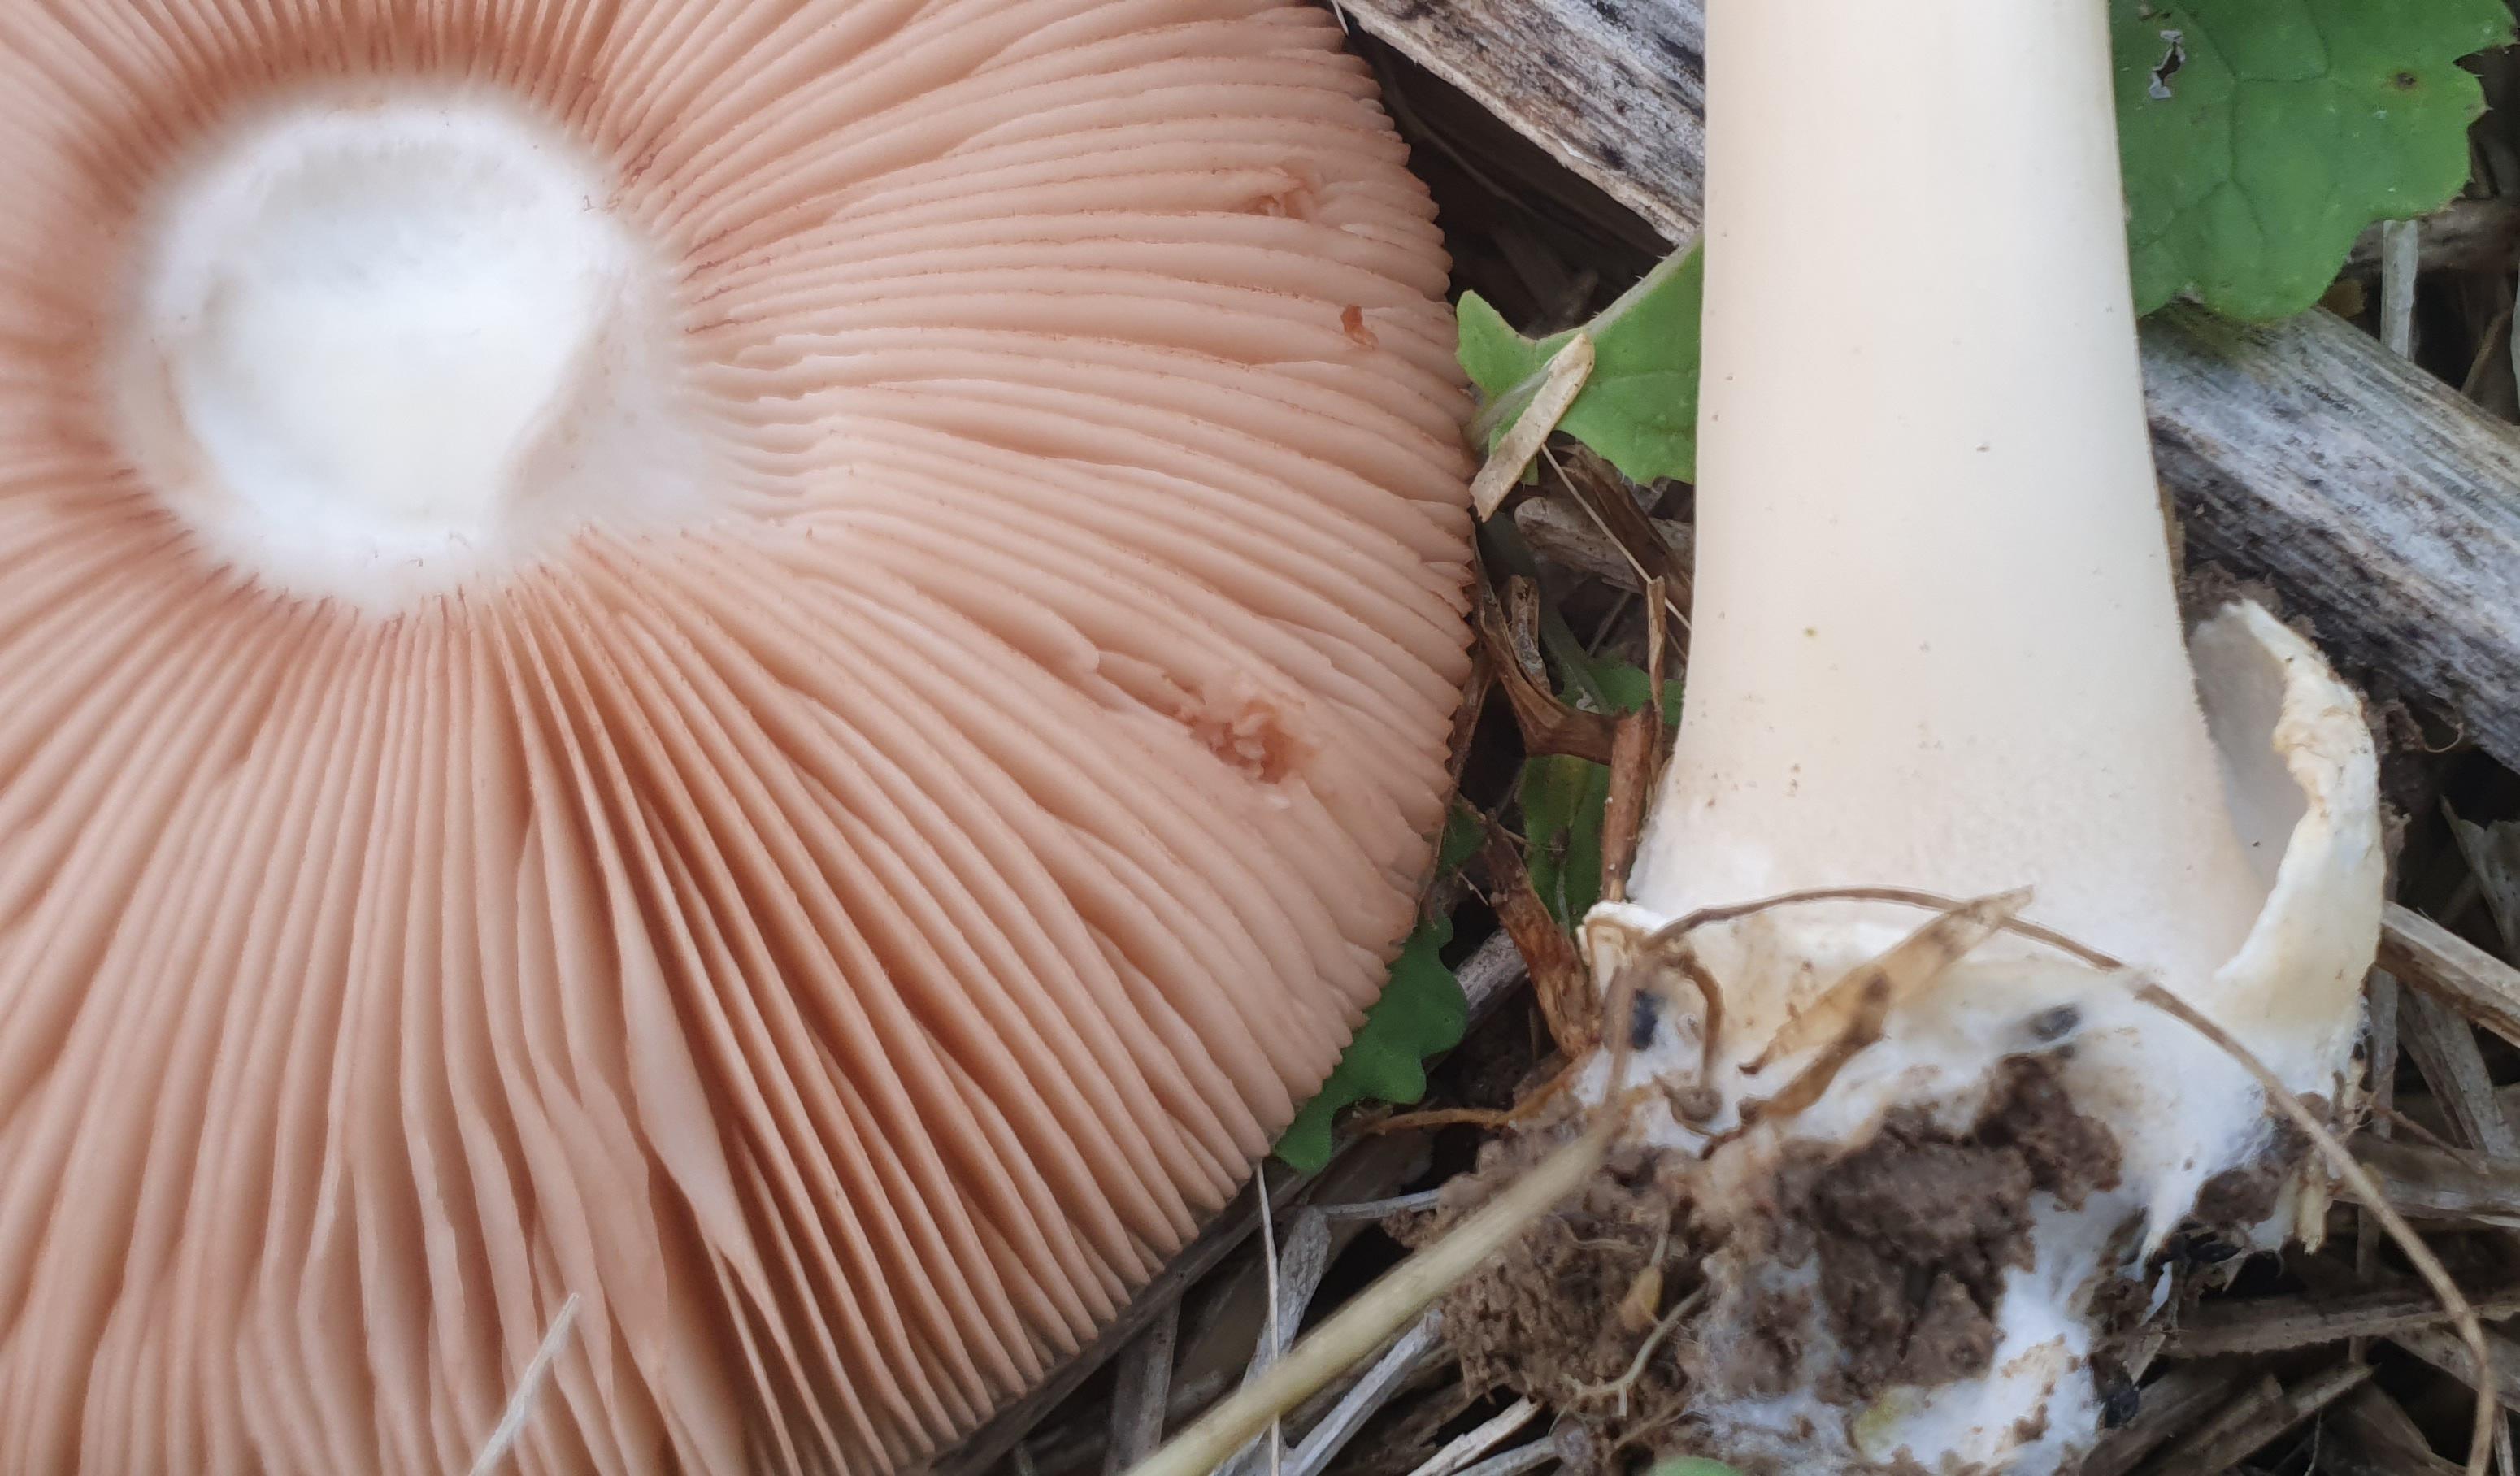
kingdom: Fungi
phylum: Basidiomycota
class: Agaricomycetes
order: Agaricales
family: Pluteaceae
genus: Volvopluteus
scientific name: Volvopluteus gloiocephalus
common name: høj posesvamp
